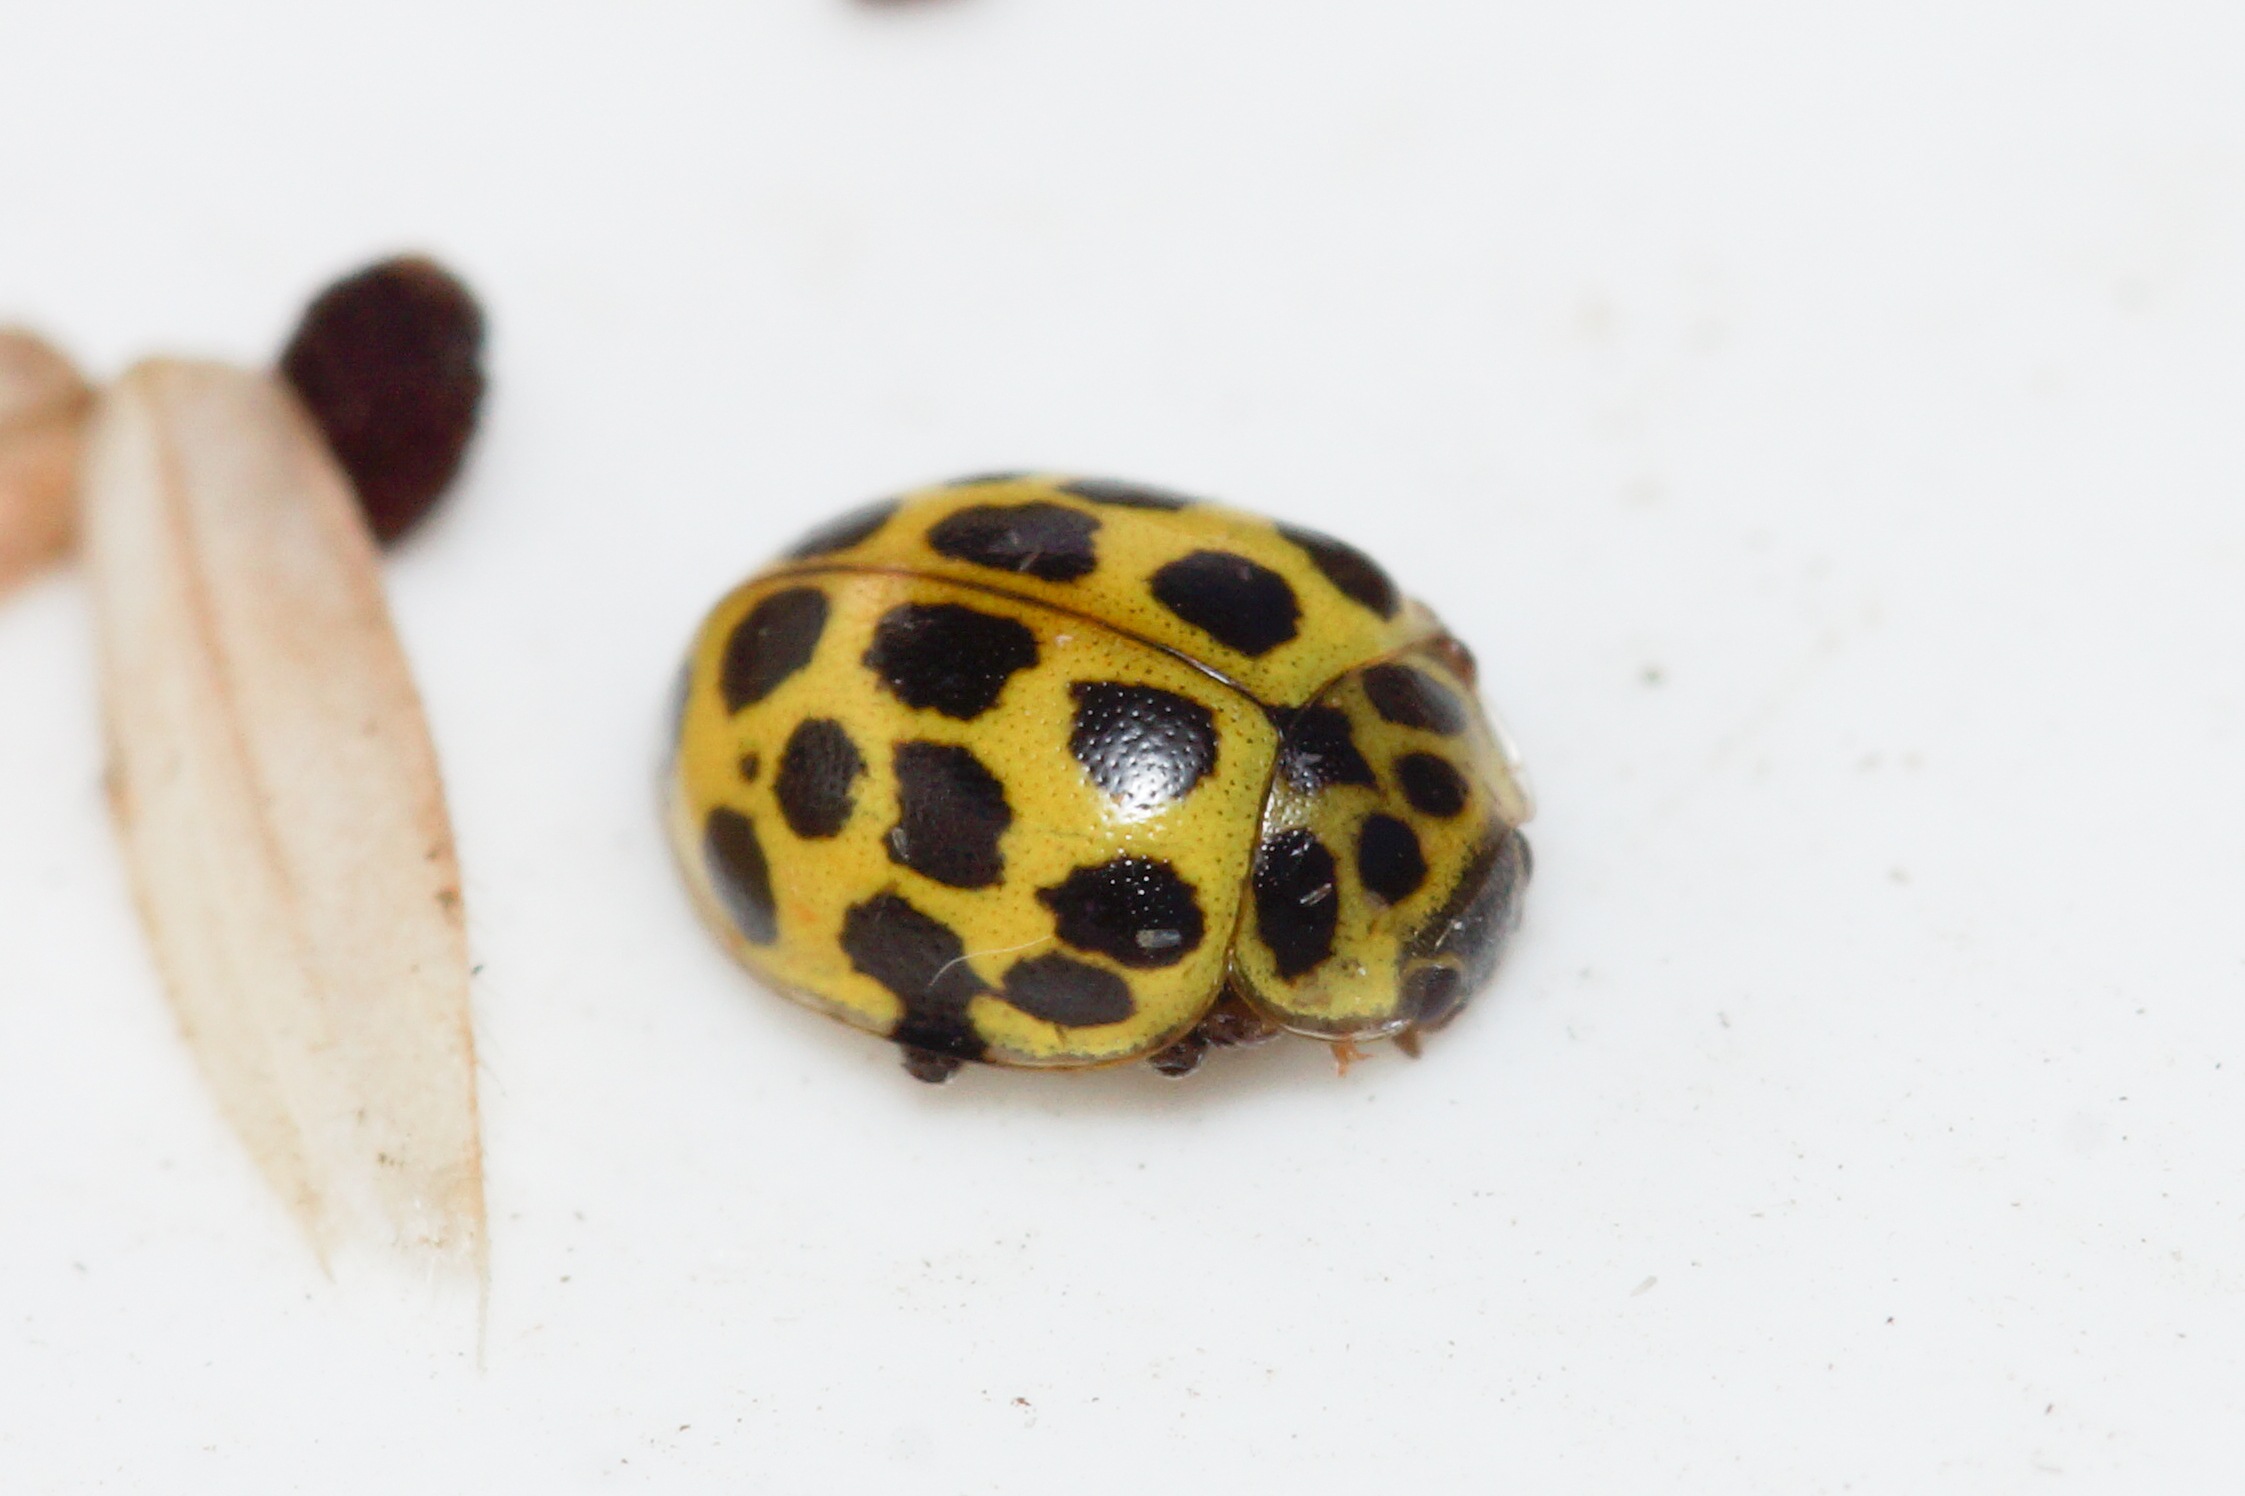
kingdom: Animalia
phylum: Arthropoda
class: Insecta
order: Coleoptera
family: Coccinellidae
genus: Psyllobora
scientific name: Psyllobora vigintiduopunctata
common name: Toogtyveplettet mariehøne
